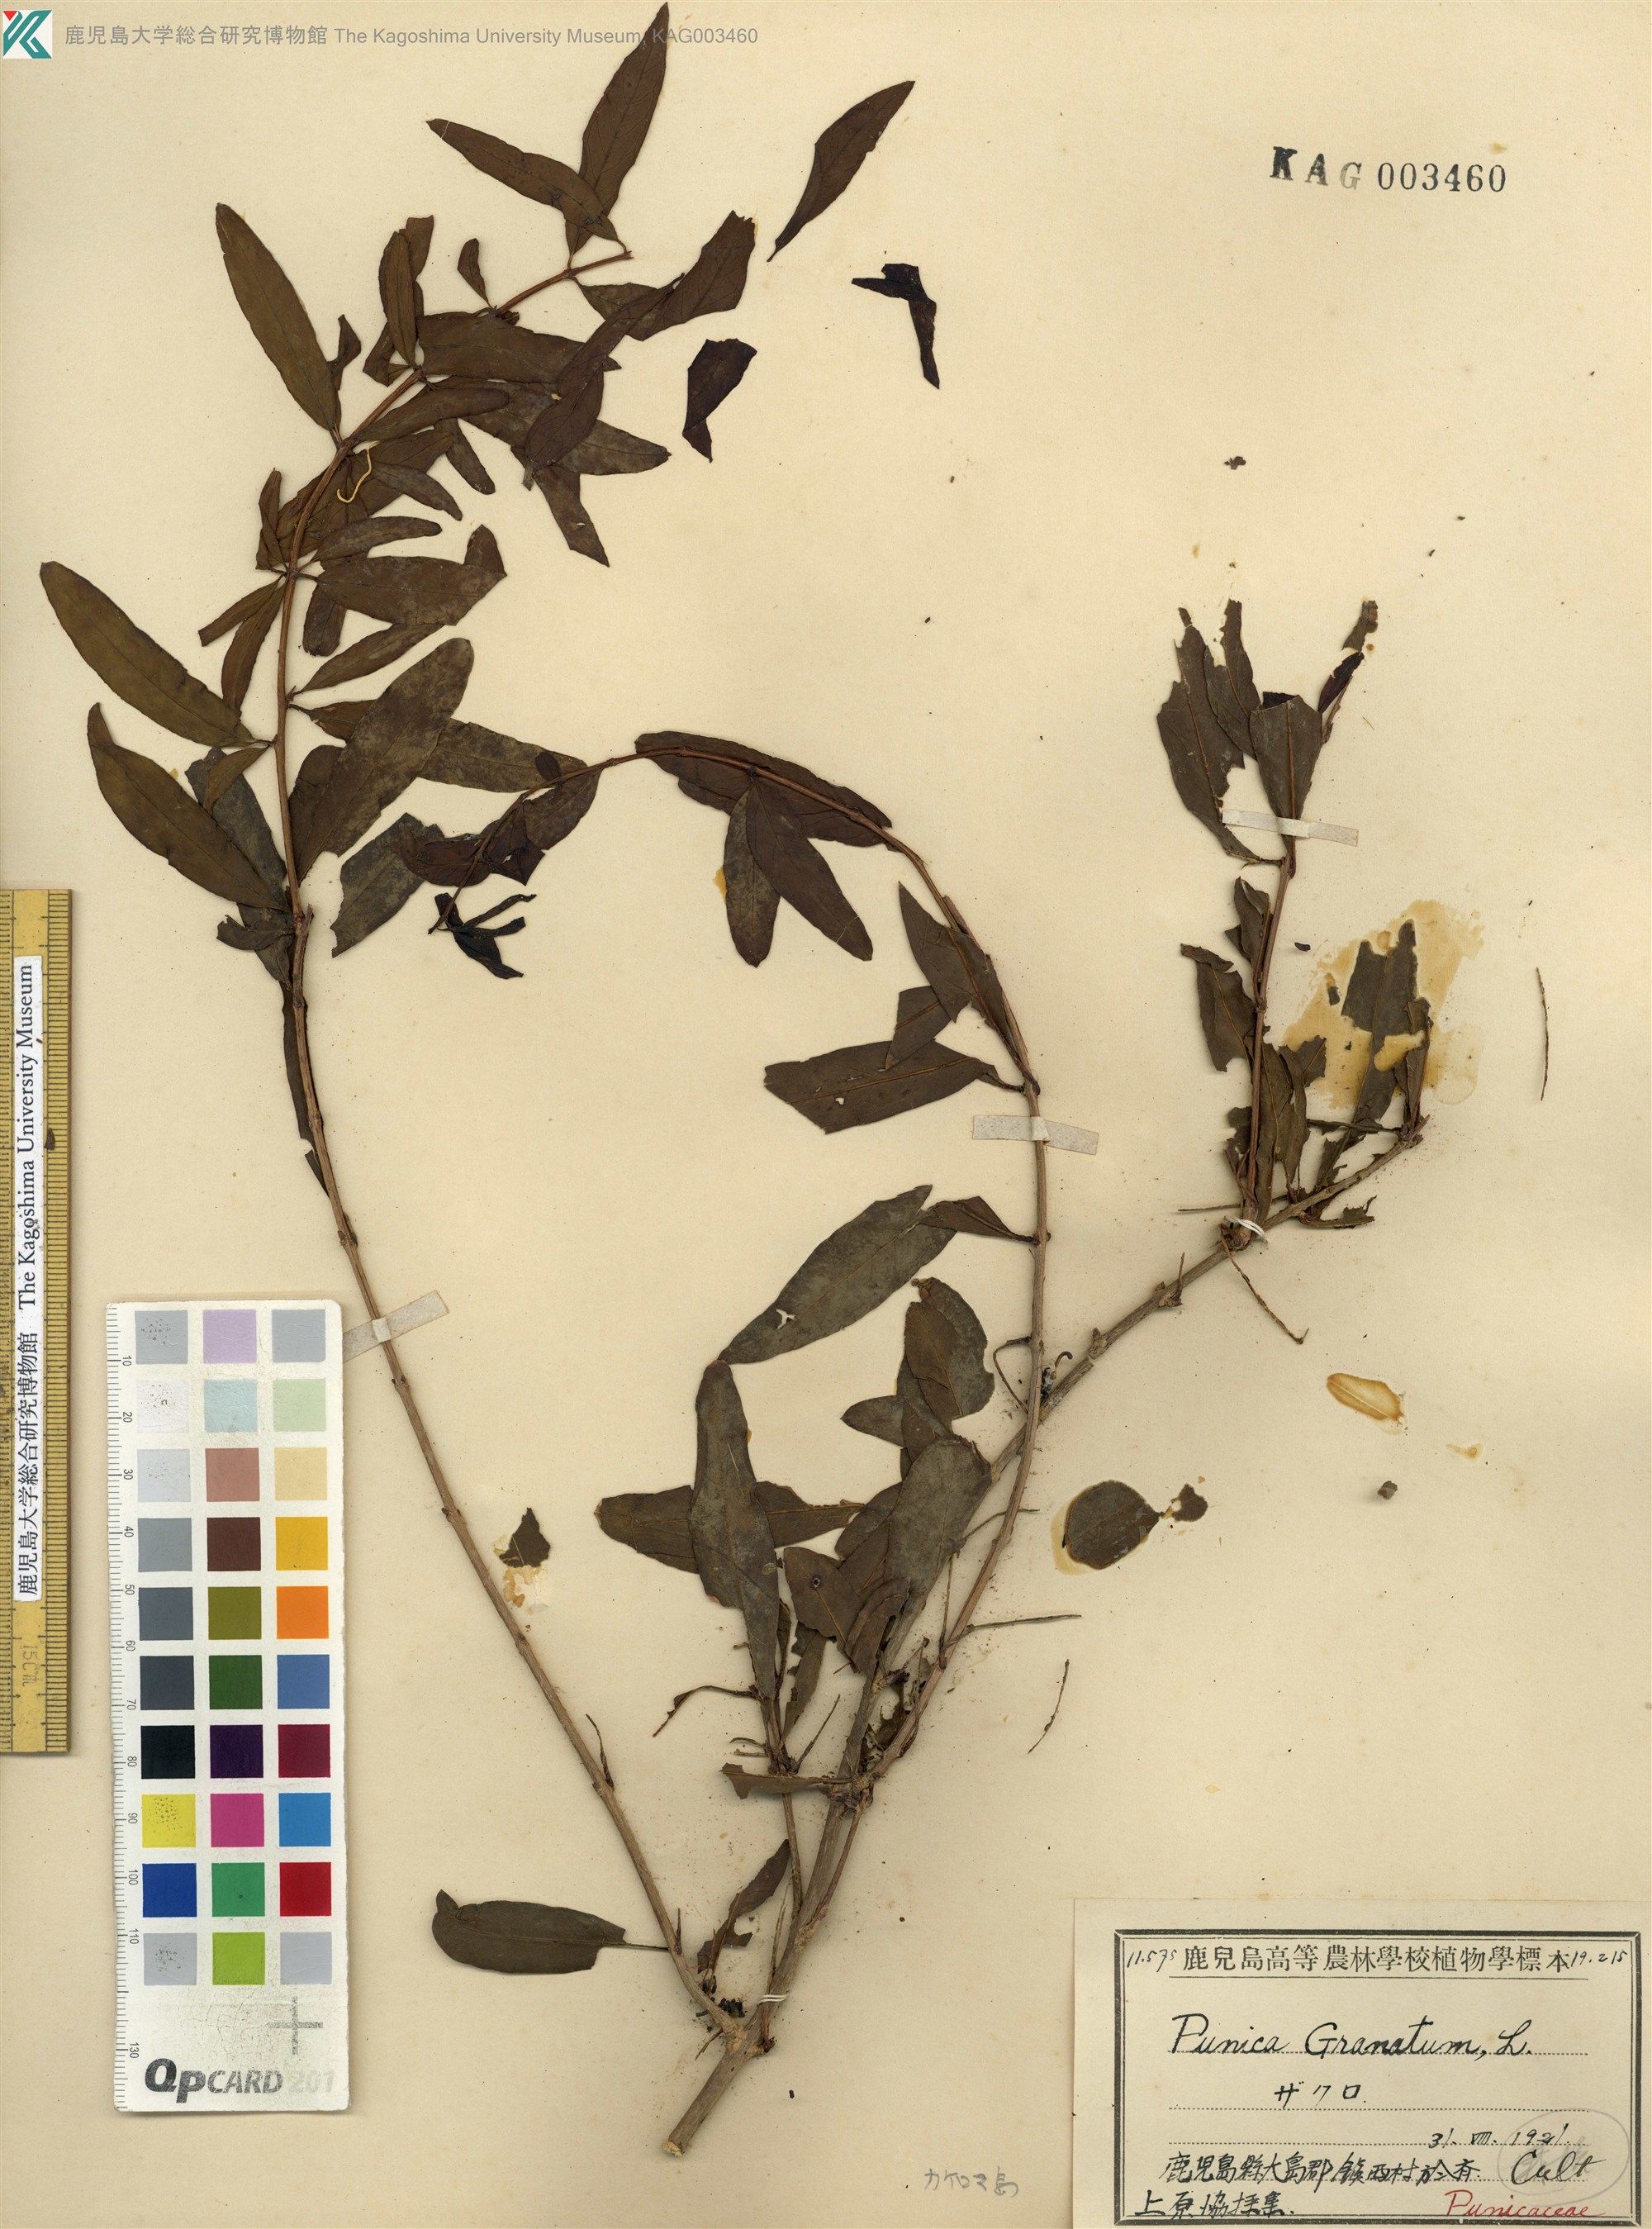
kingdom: Plantae
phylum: Tracheophyta
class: Magnoliopsida
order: Myrtales
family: Lythraceae
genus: Punica
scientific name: Punica granatum
